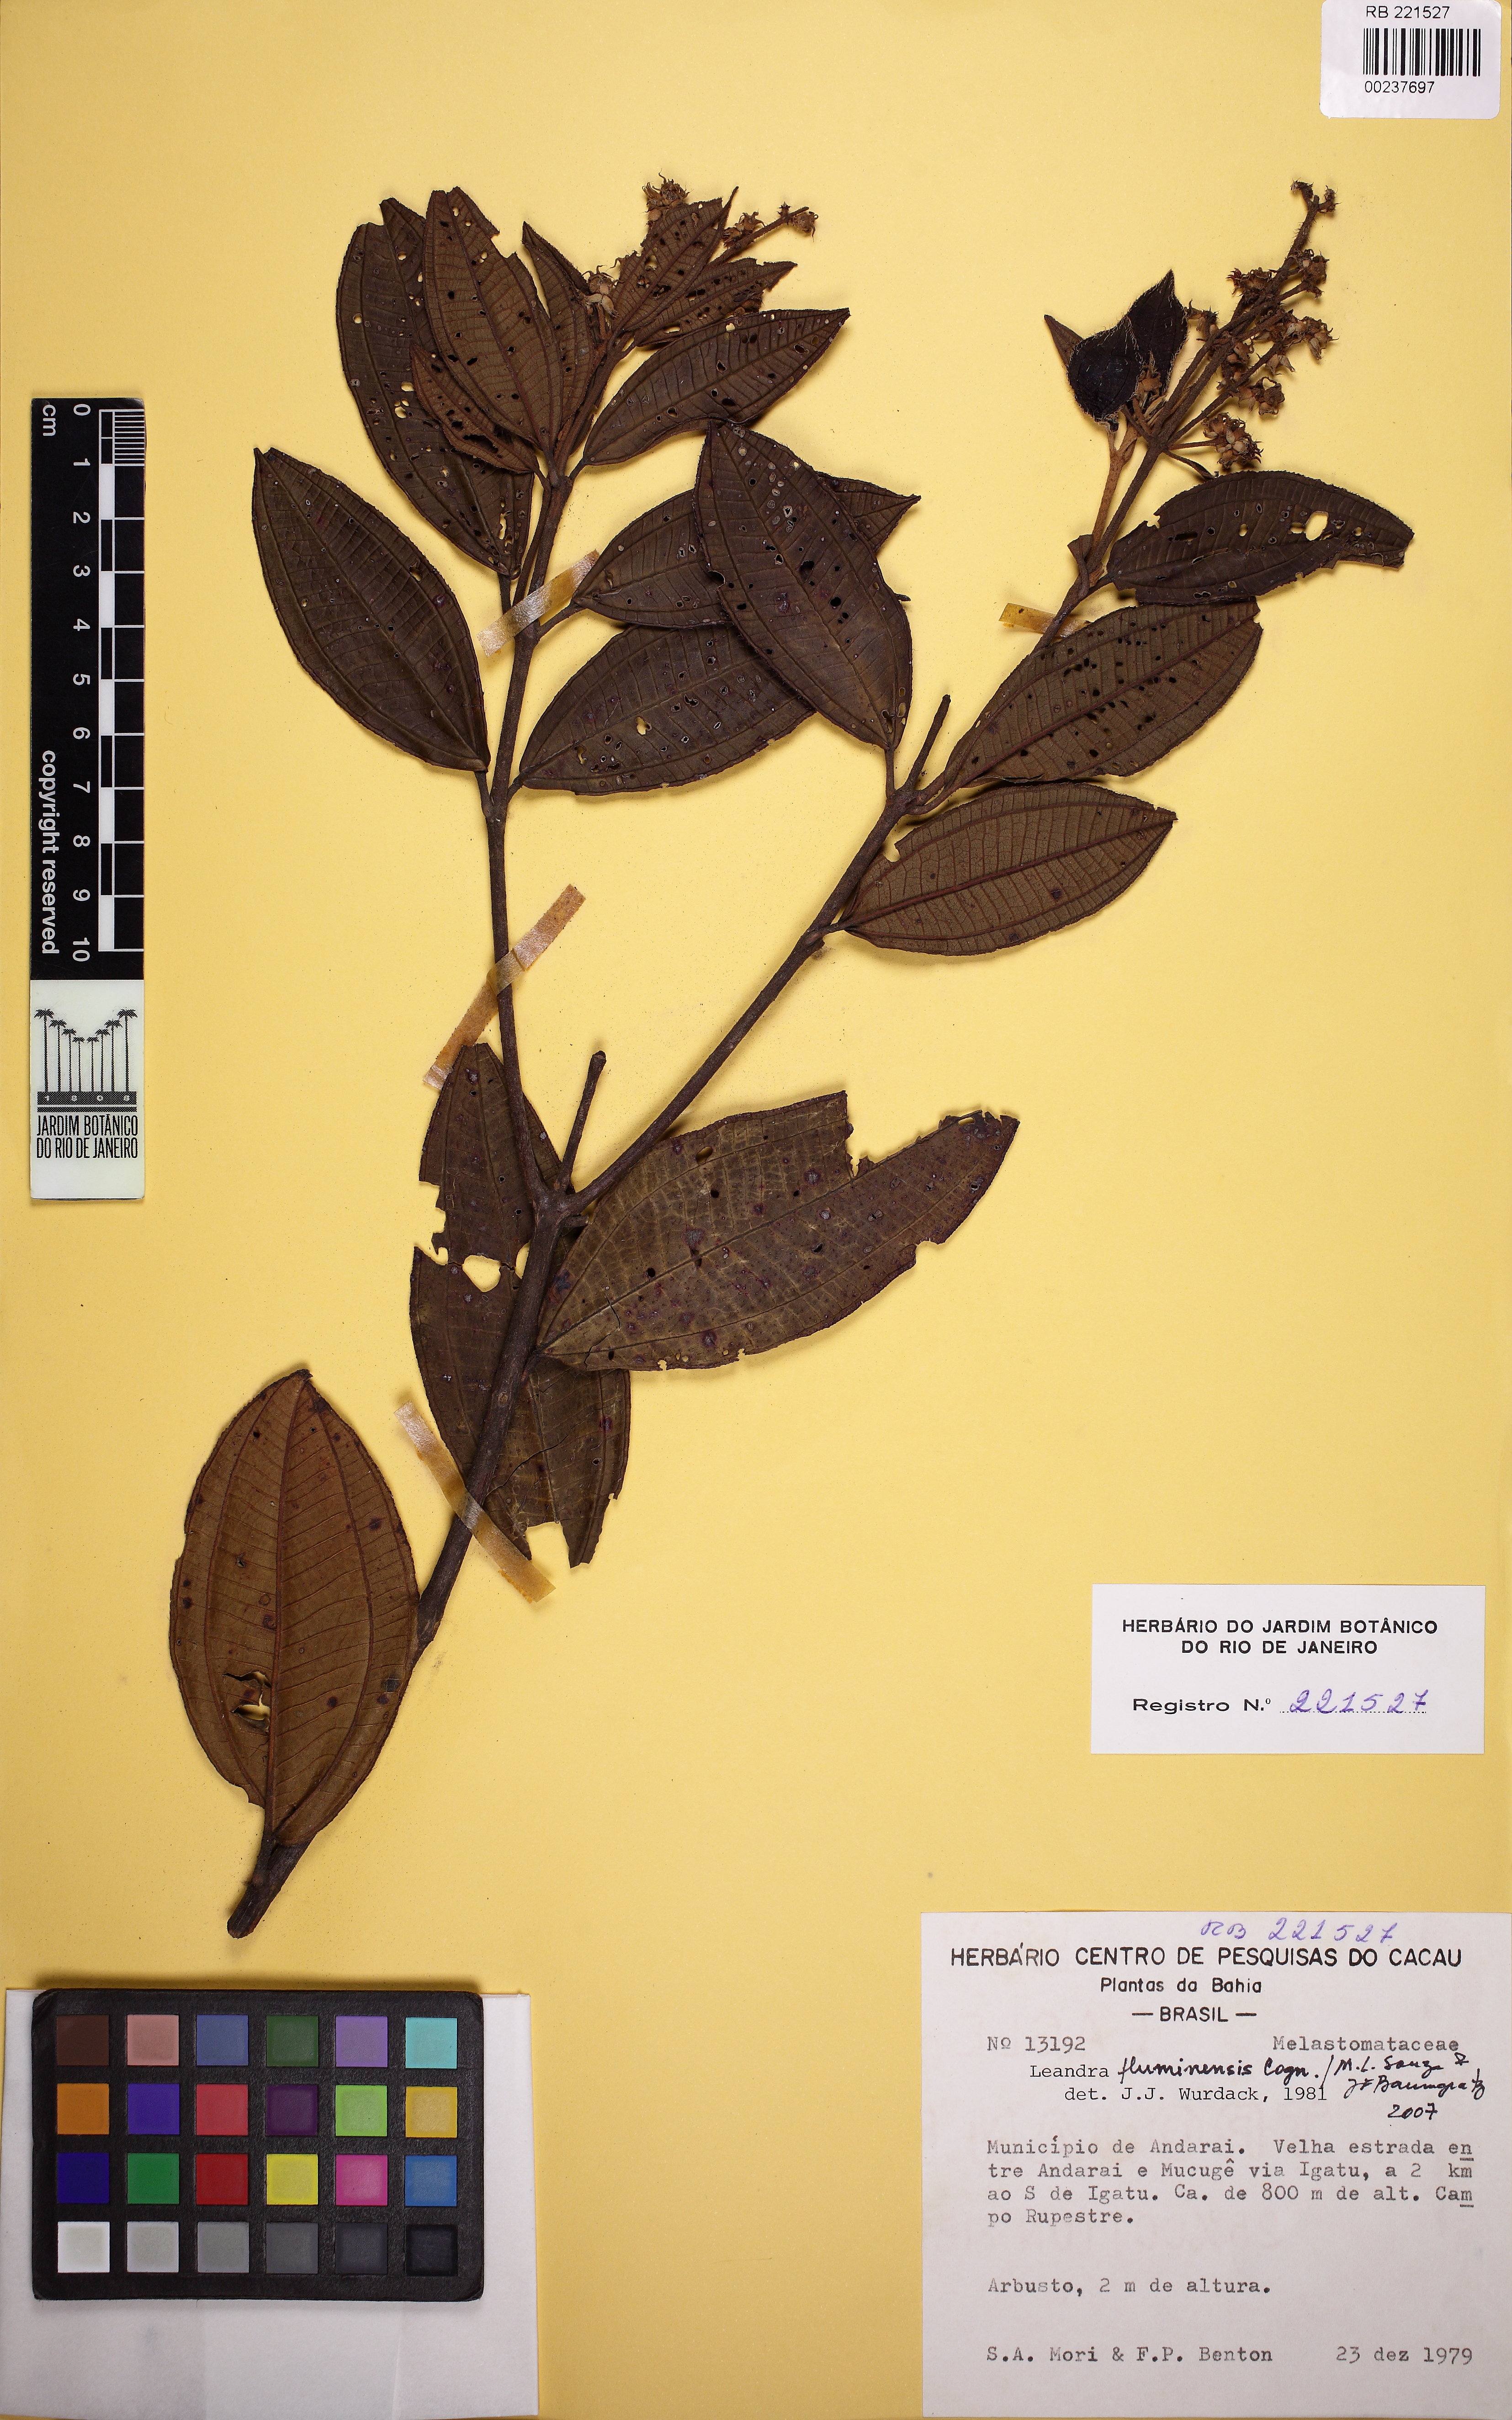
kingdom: Plantae
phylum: Tracheophyta
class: Magnoliopsida
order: Myrtales
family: Melastomataceae
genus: Miconia
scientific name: Miconia leafluminensis
